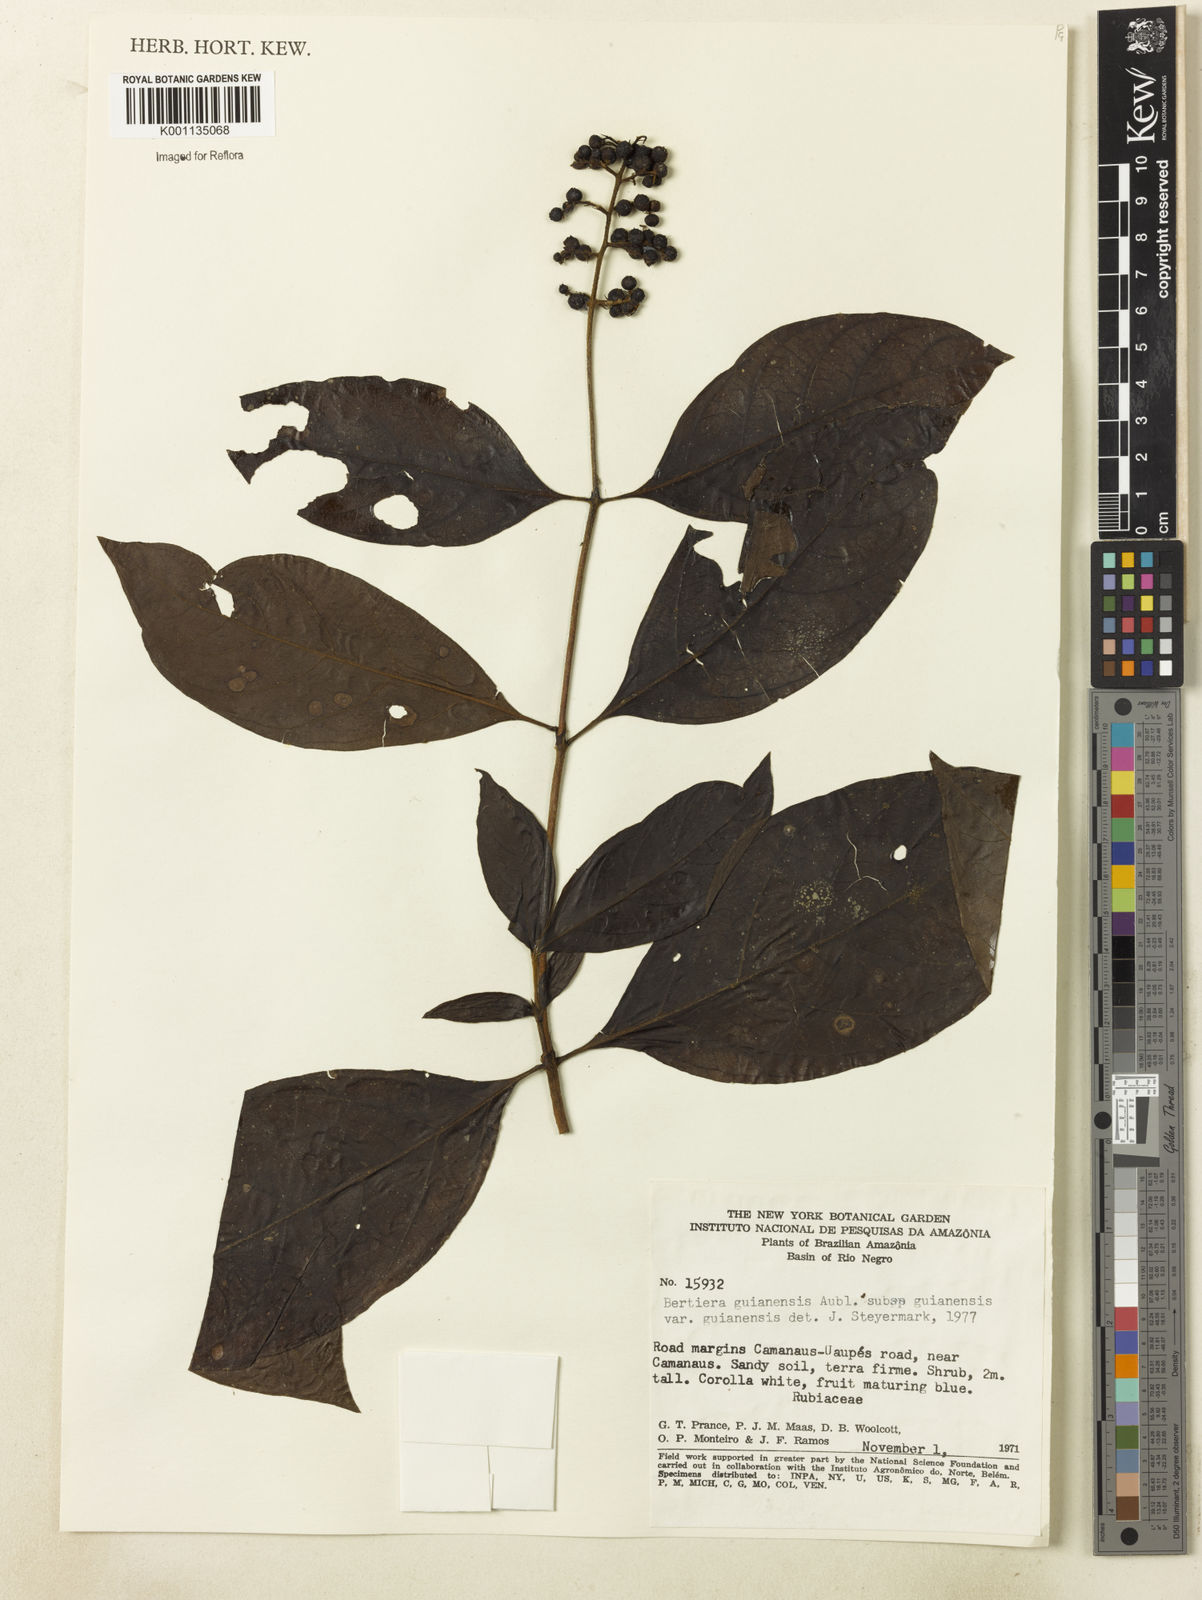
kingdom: Plantae
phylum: Tracheophyta
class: Magnoliopsida
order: Gentianales
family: Rubiaceae
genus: Bertiera
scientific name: Bertiera guianensis
